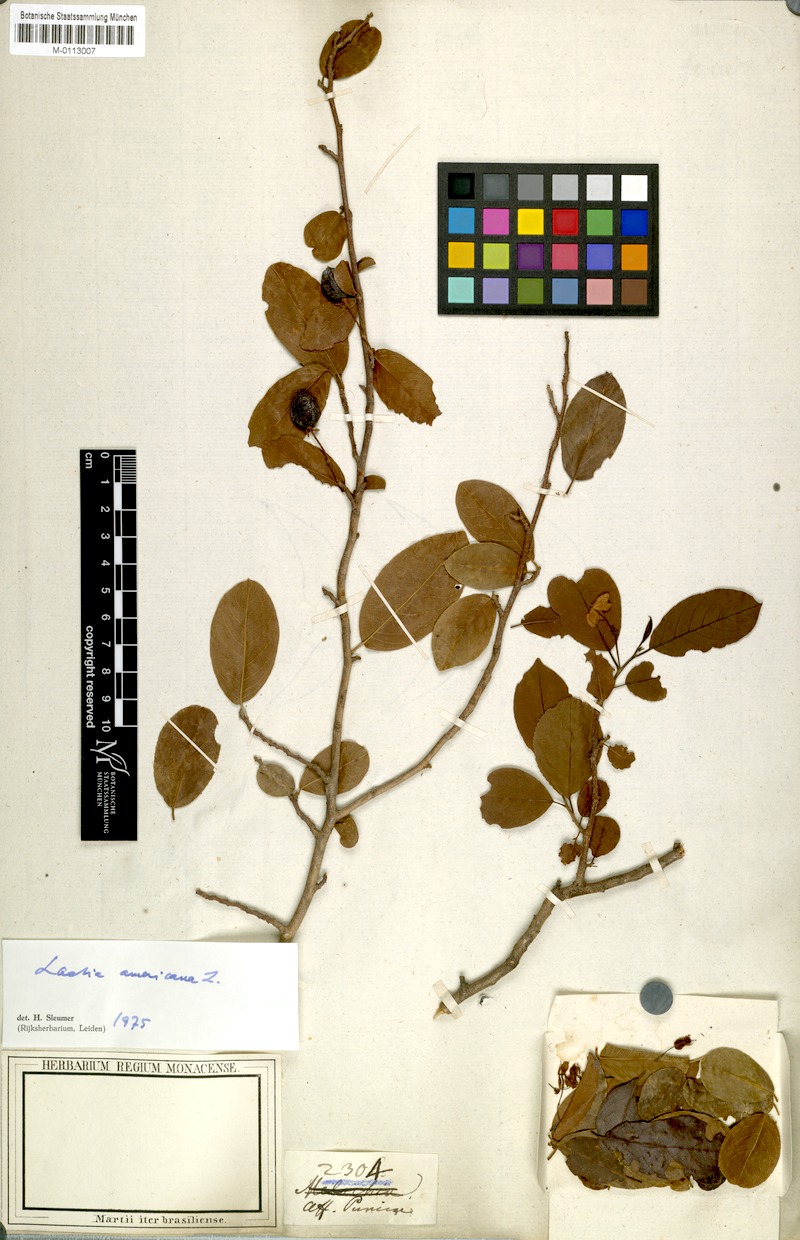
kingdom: Plantae
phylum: Tracheophyta
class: Magnoliopsida
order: Malpighiales
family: Salicaceae
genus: Casearia
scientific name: Casearia americana
